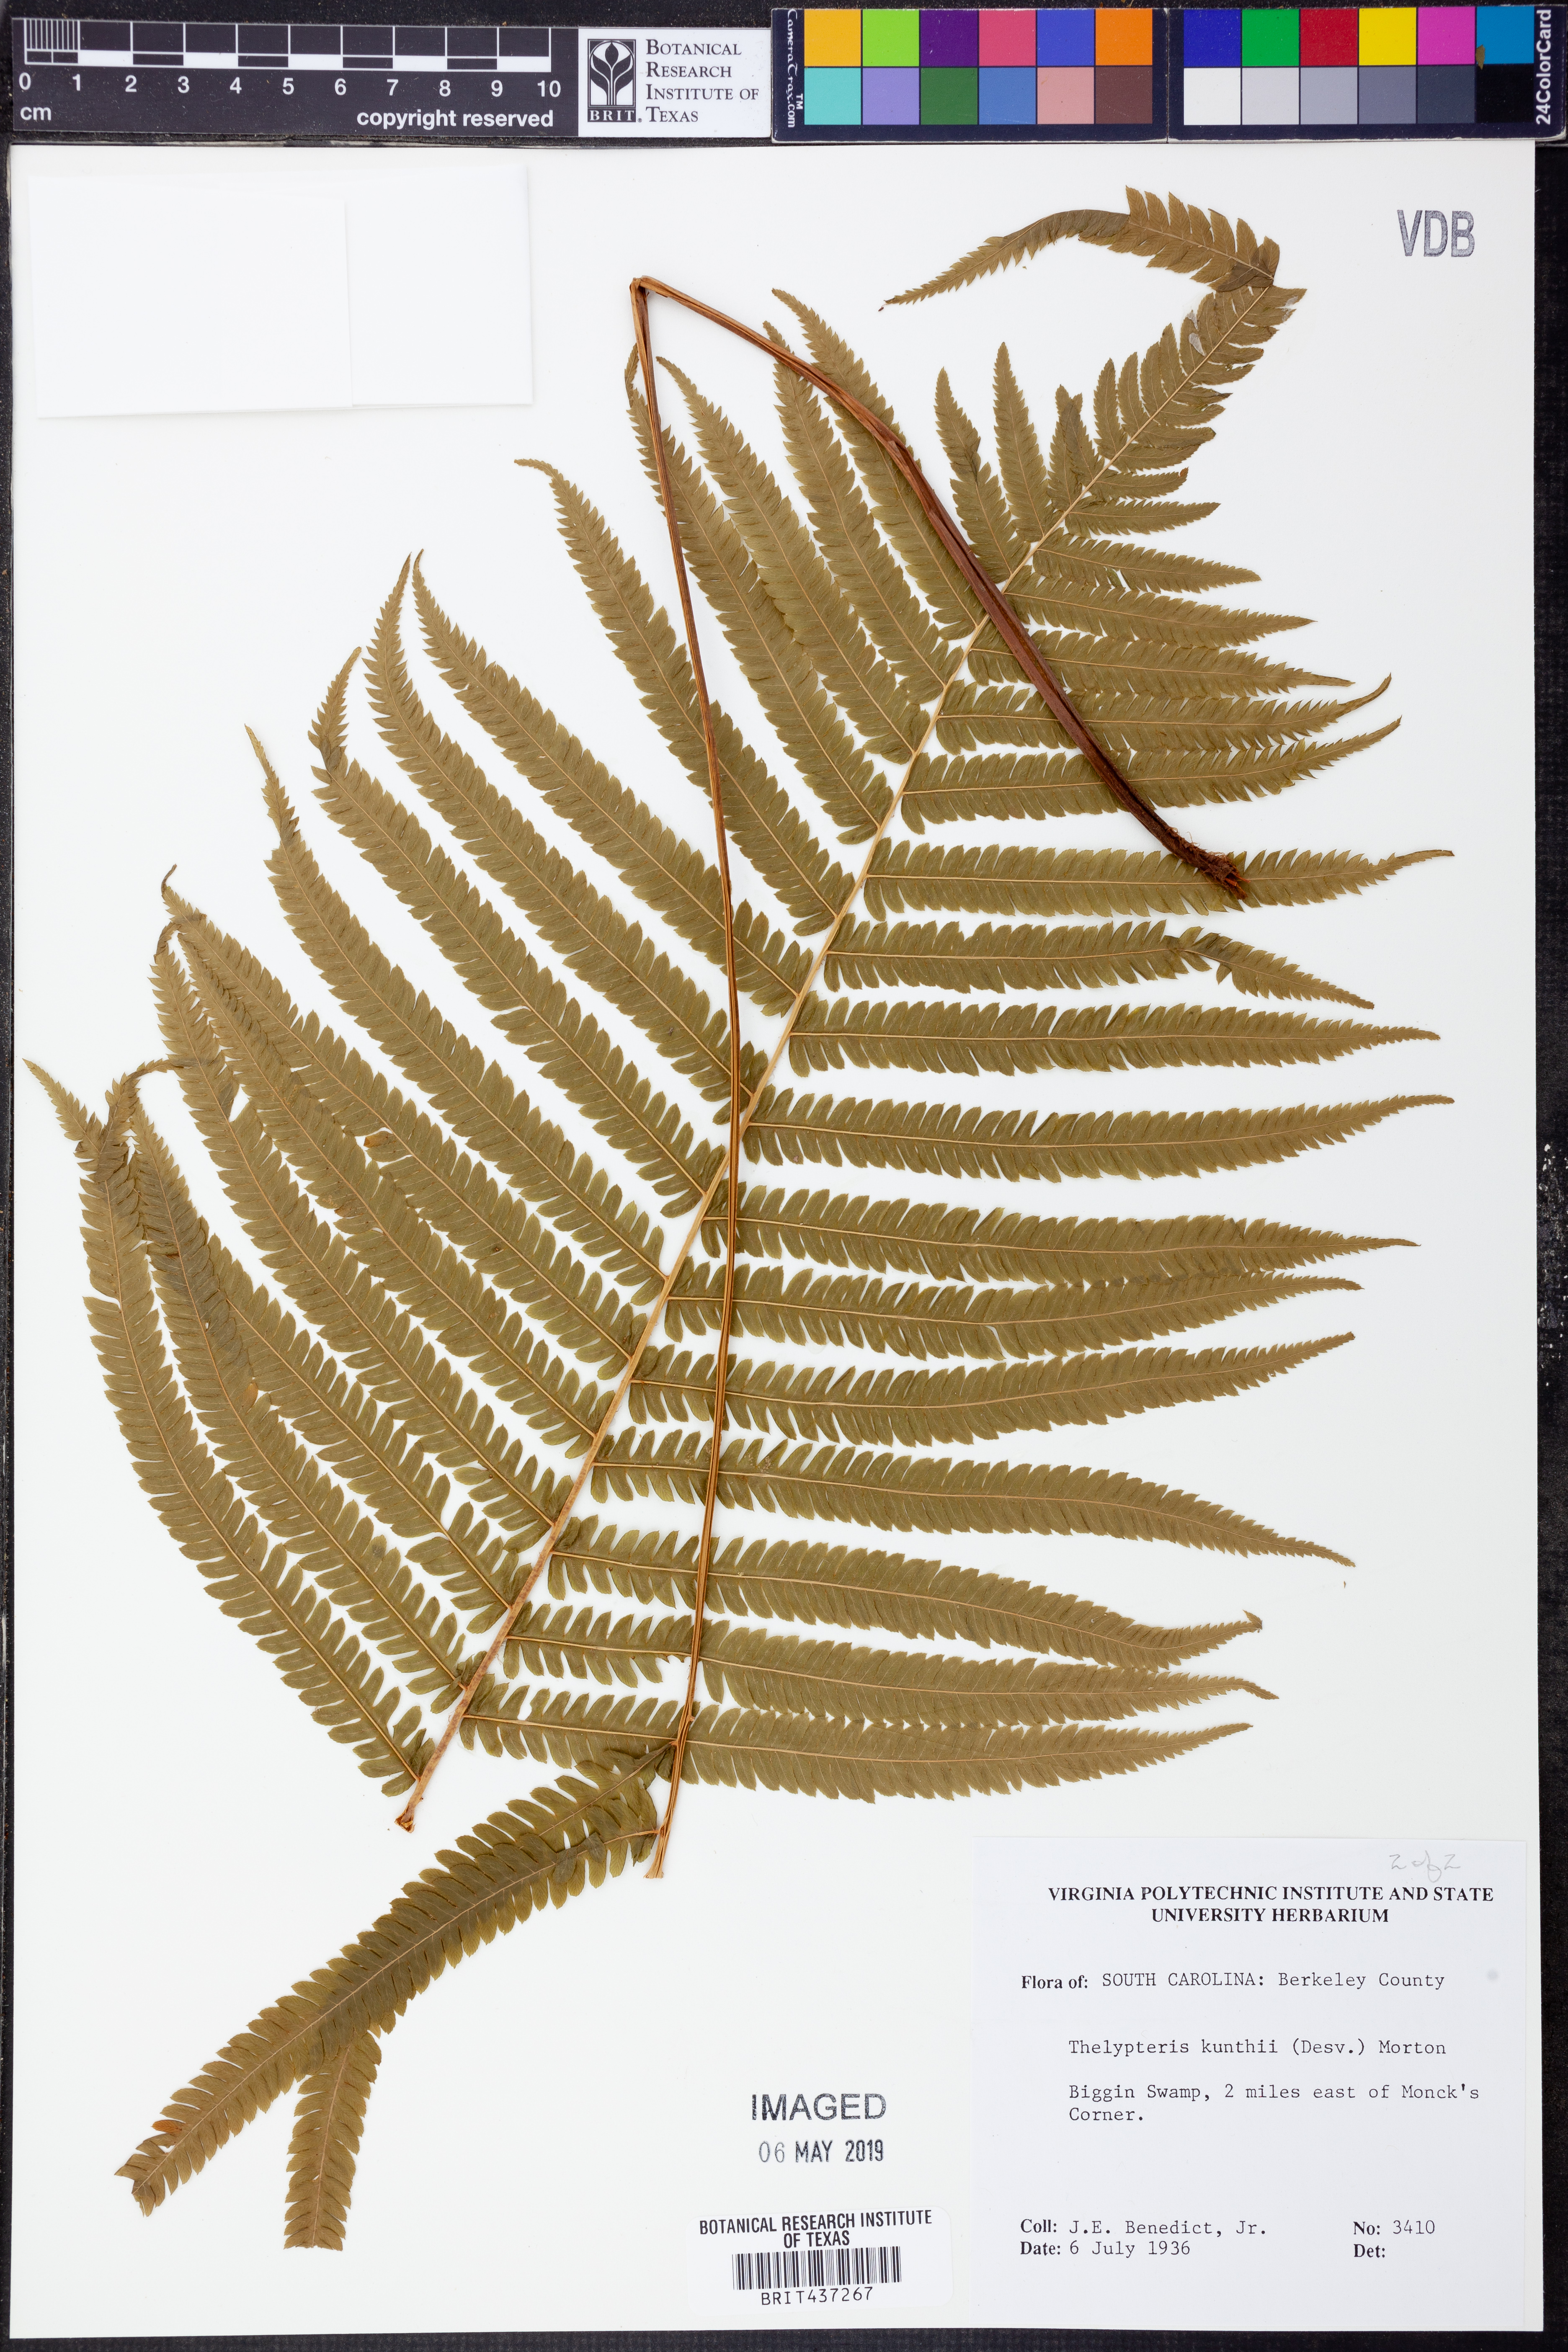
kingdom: Plantae
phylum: Tracheophyta
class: Polypodiopsida
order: Polypodiales
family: Thelypteridaceae
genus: Pelazoneuron
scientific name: Pelazoneuron kunthii
